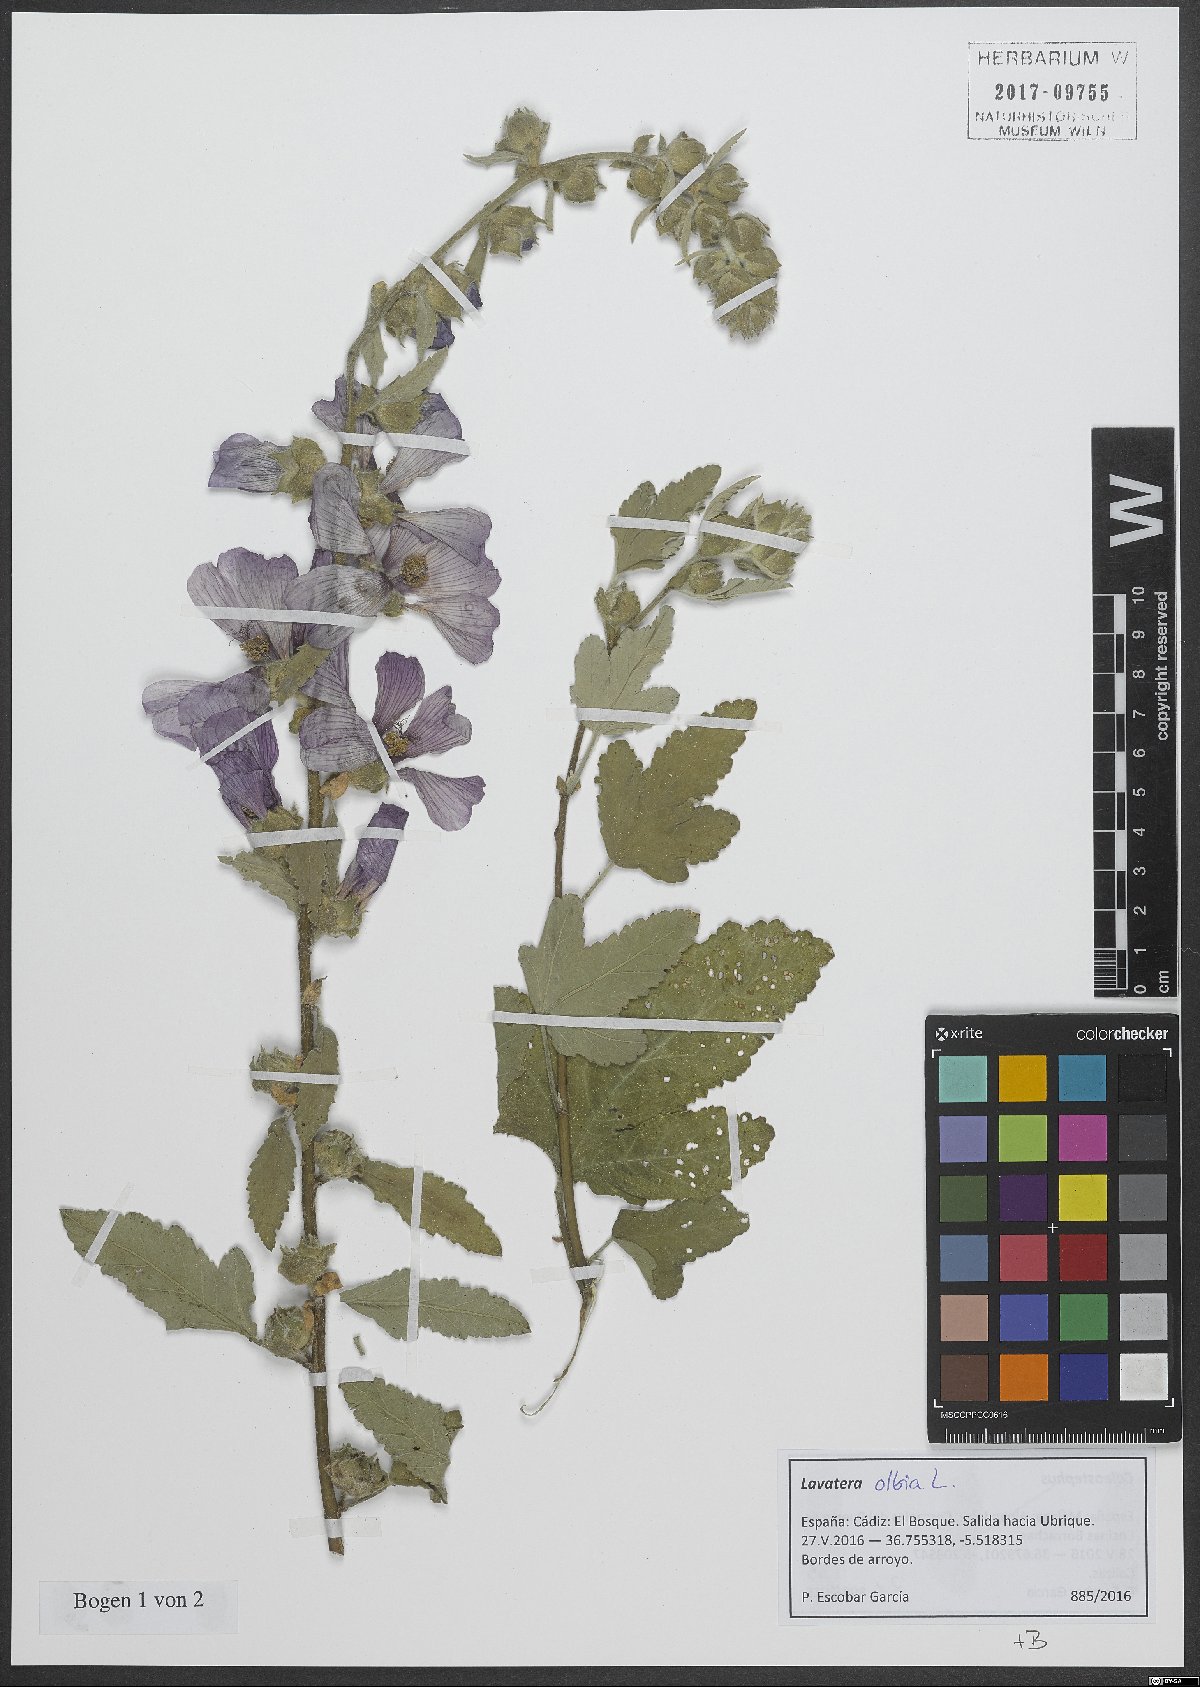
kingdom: Plantae
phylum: Tracheophyta
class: Magnoliopsida
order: Malvales
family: Malvaceae
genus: Malva
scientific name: Malva olbia
